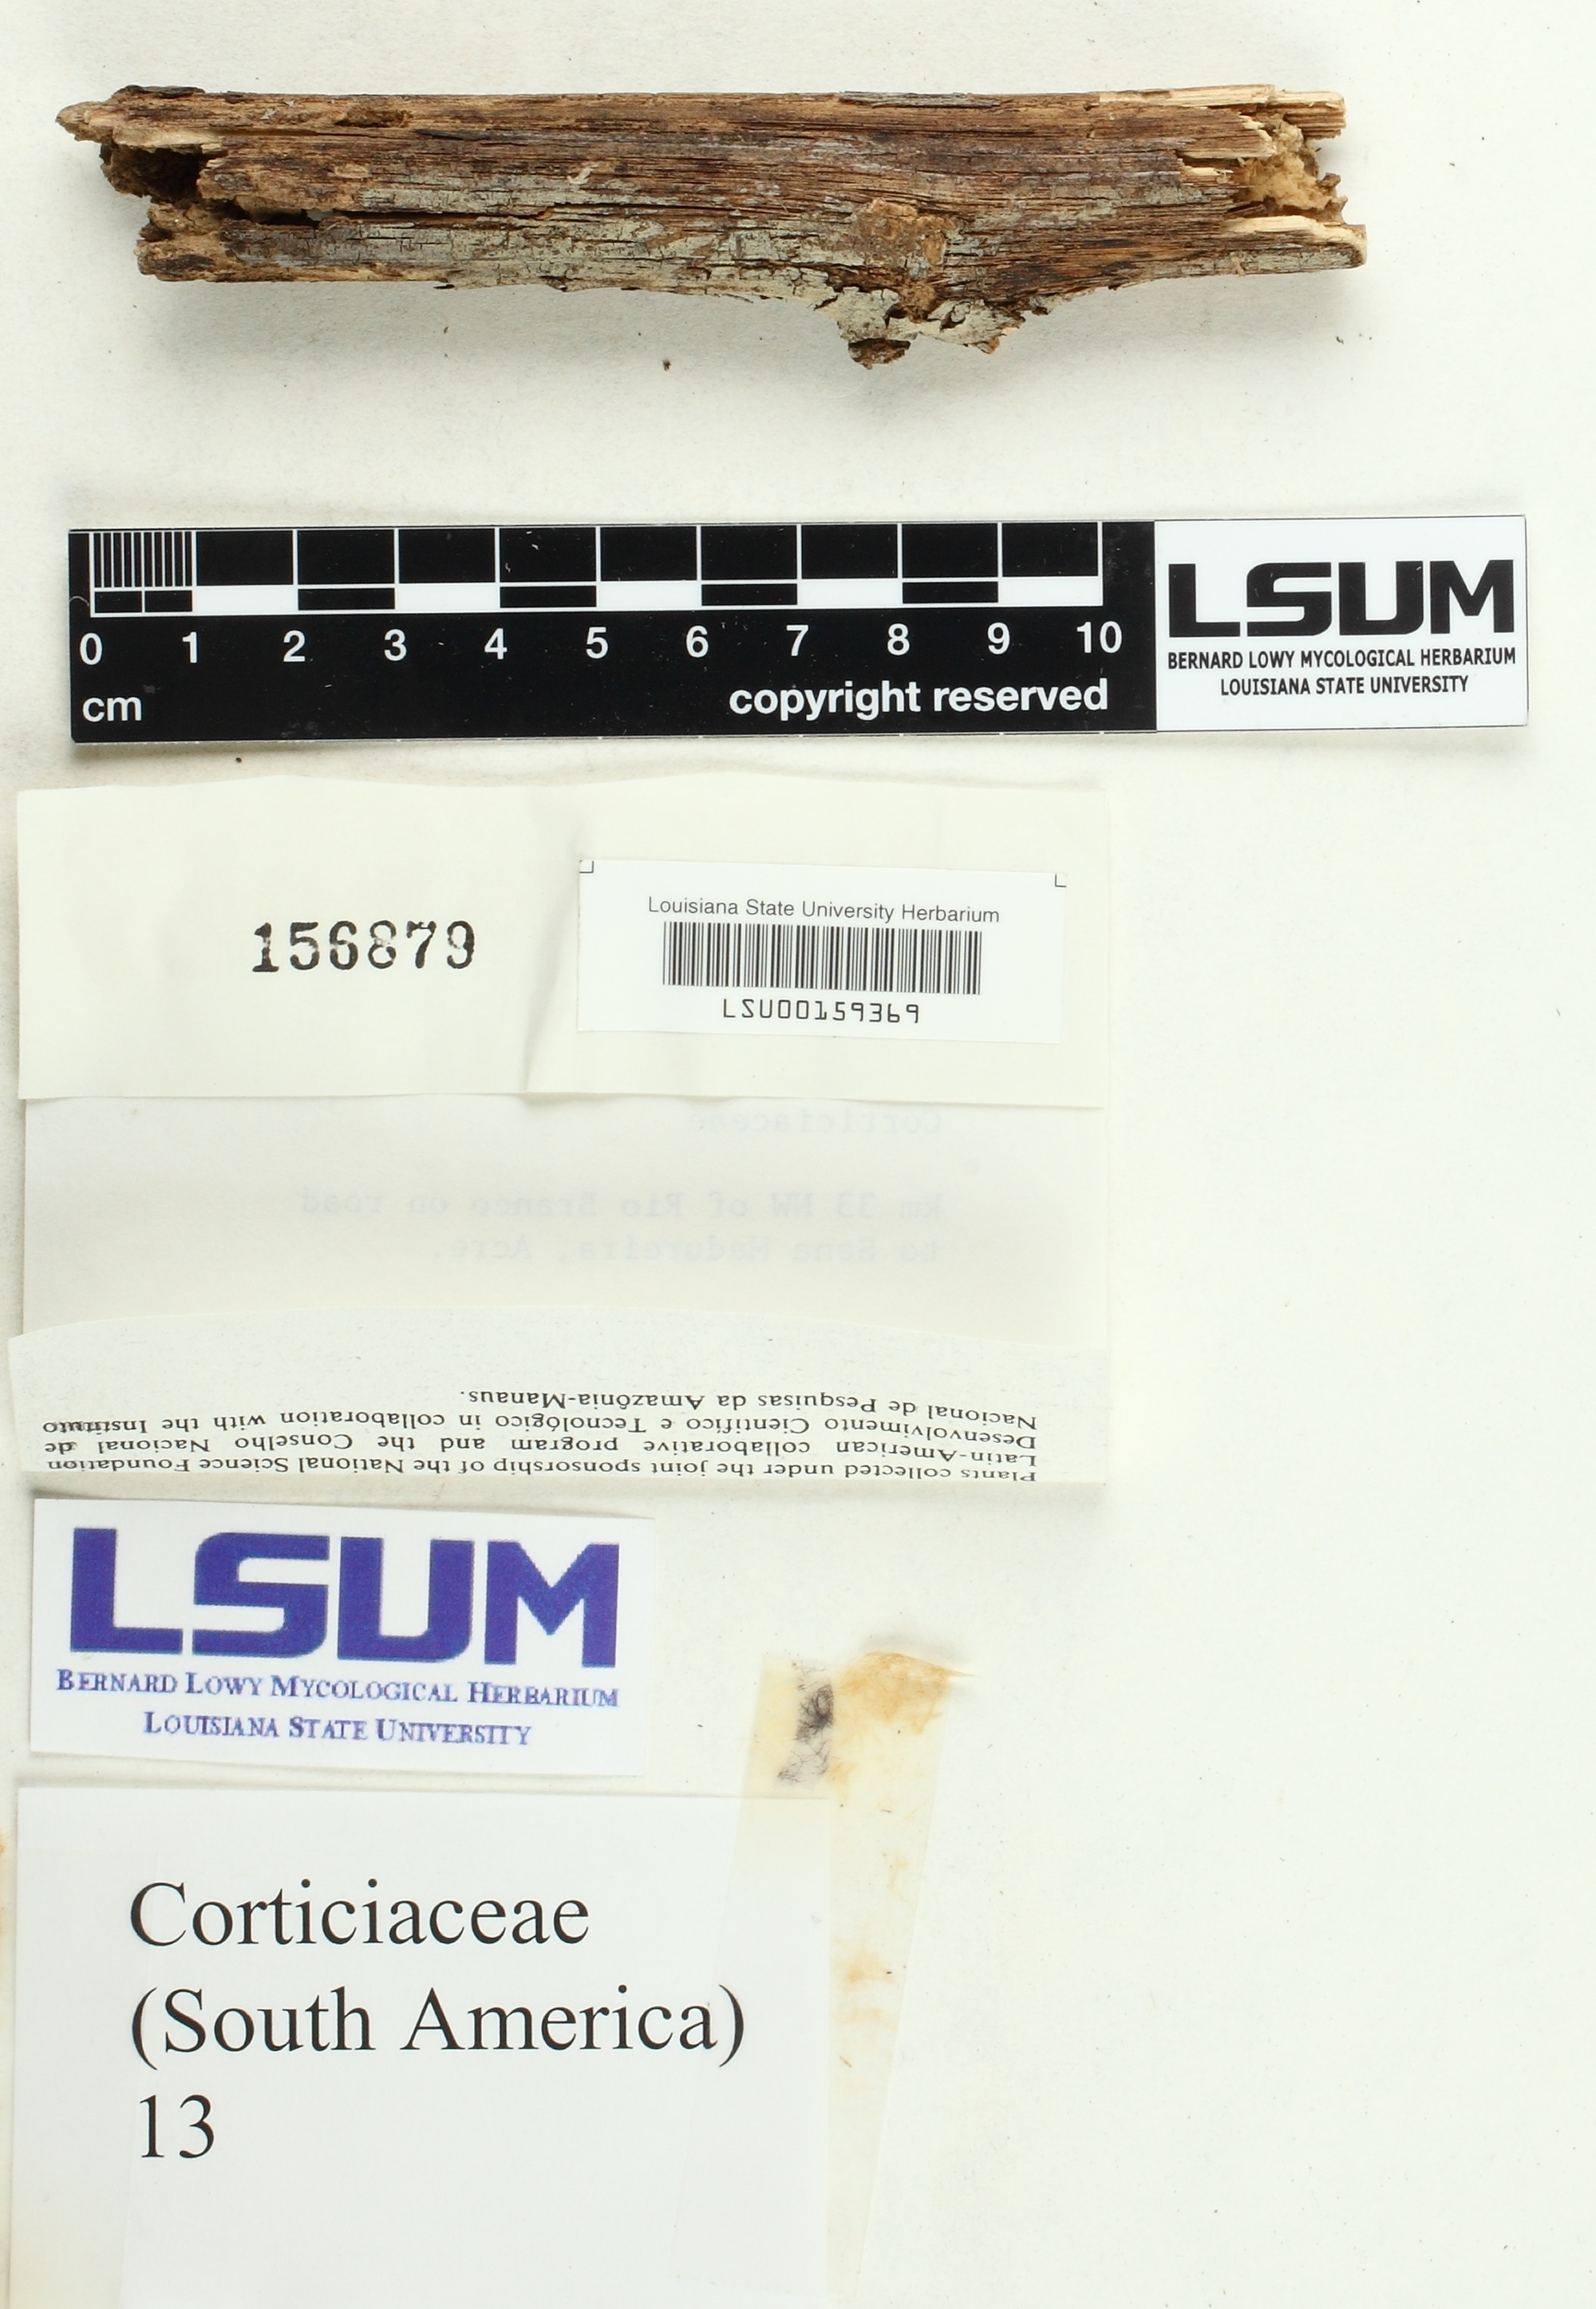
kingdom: Fungi
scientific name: Fungi
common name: Fungi
